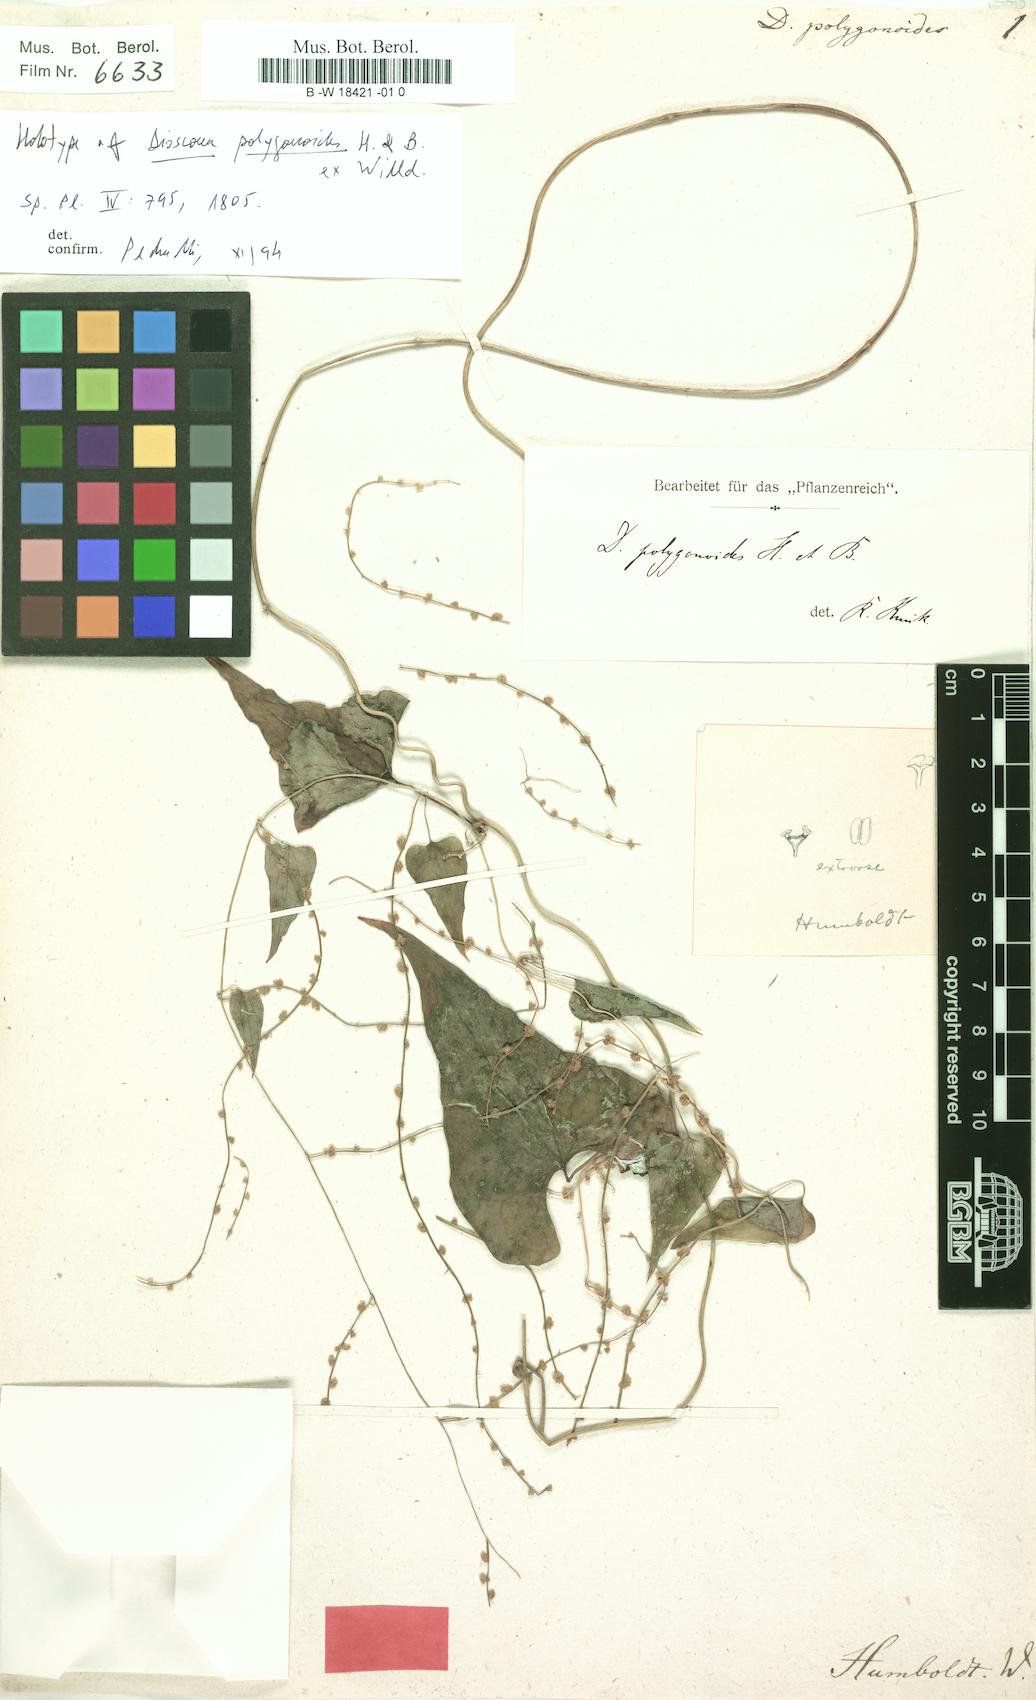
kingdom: Plantae
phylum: Tracheophyta
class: Liliopsida
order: Dioscoreales
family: Dioscoreaceae
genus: Dioscorea
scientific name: Dioscorea polygonoides
